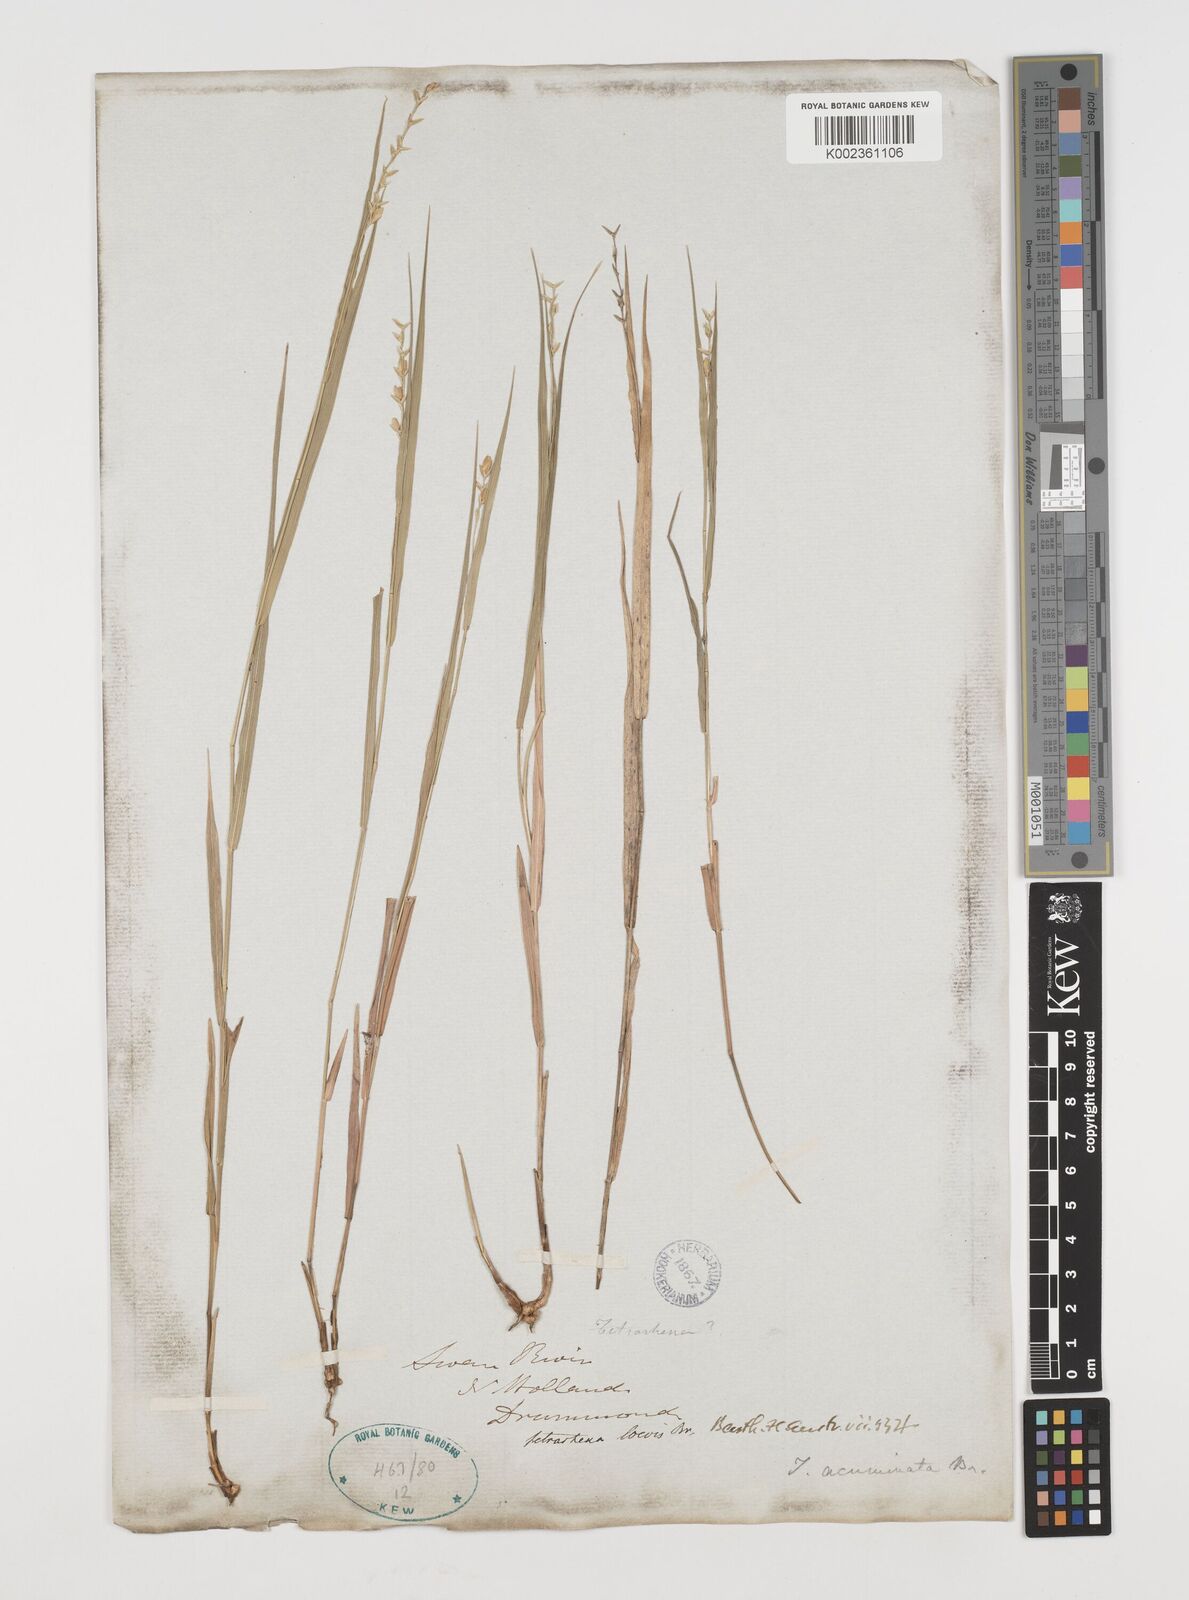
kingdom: Plantae
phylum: Tracheophyta
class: Liliopsida
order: Poales
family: Poaceae
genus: Tetrarrhena
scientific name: Tetrarrhena laevis
